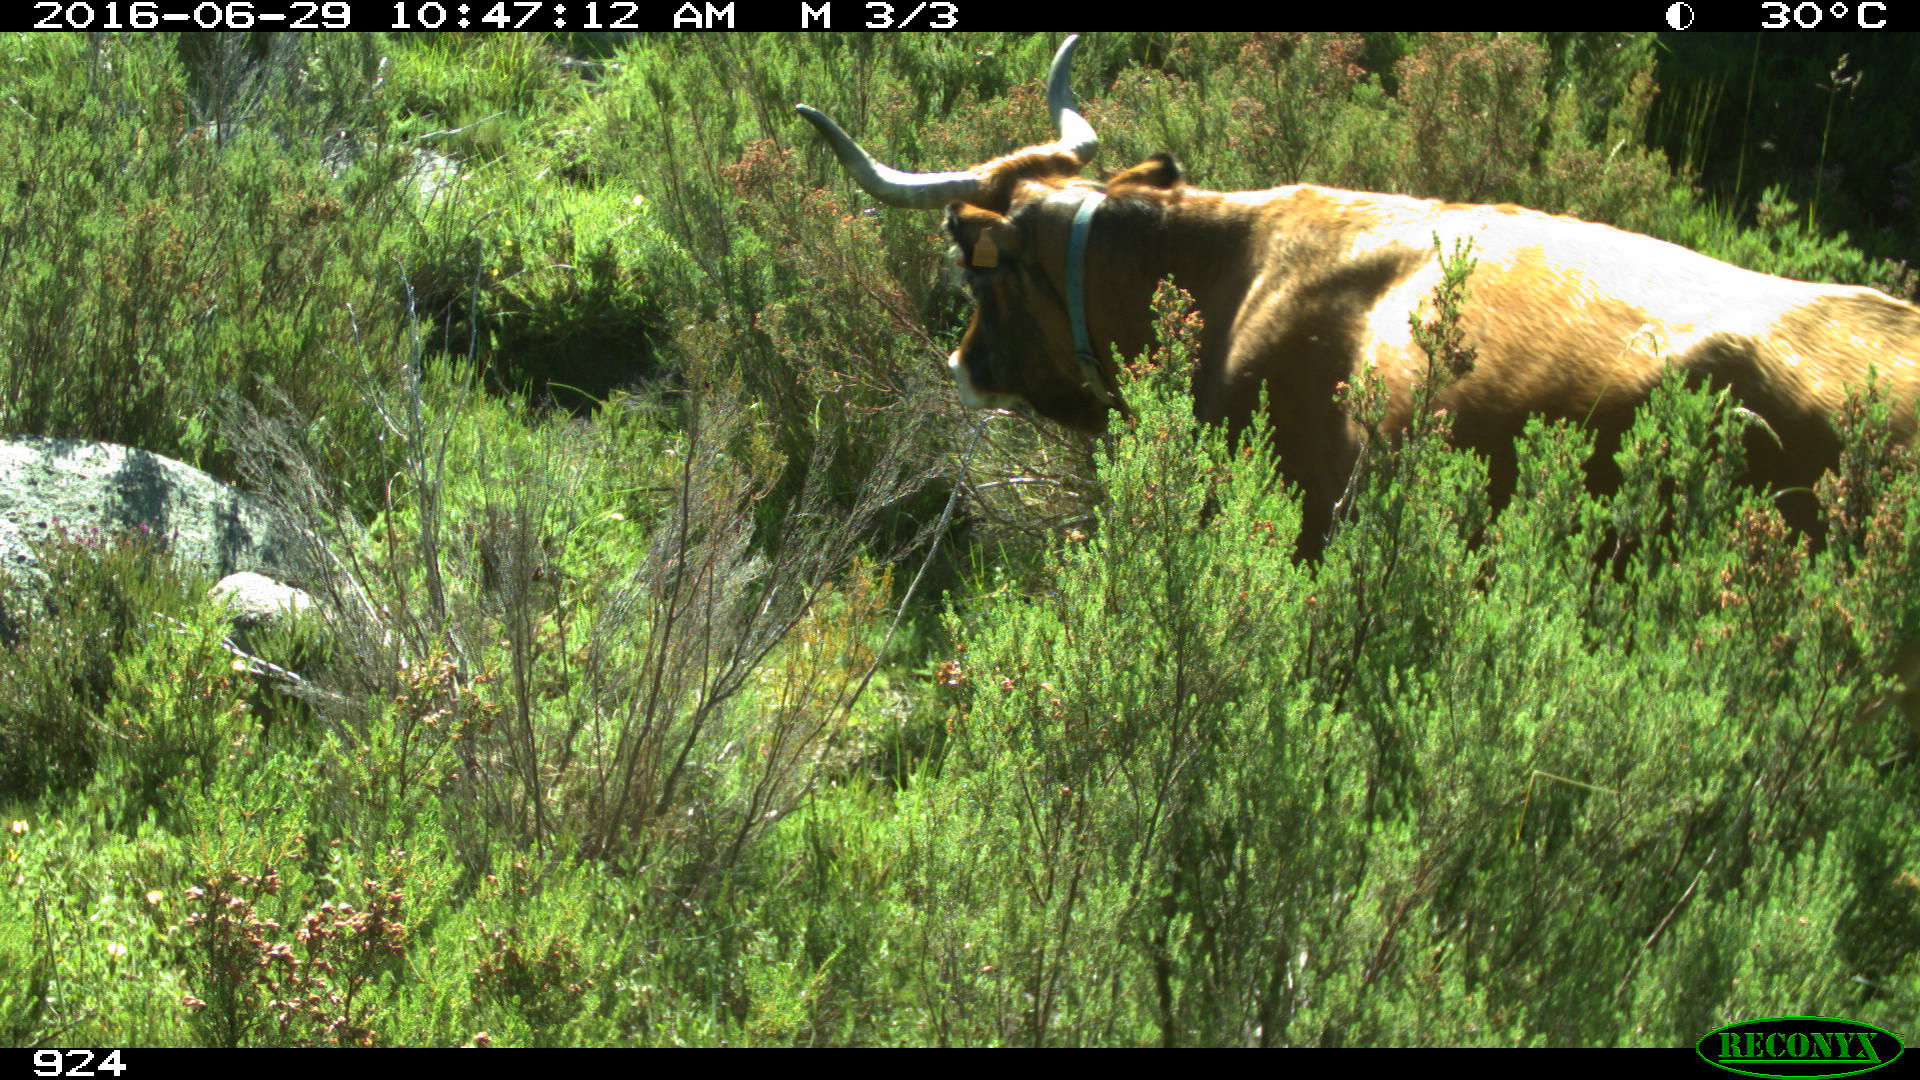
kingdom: Animalia
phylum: Chordata
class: Mammalia
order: Artiodactyla
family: Bovidae
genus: Bos
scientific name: Bos taurus
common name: Domesticated cattle
